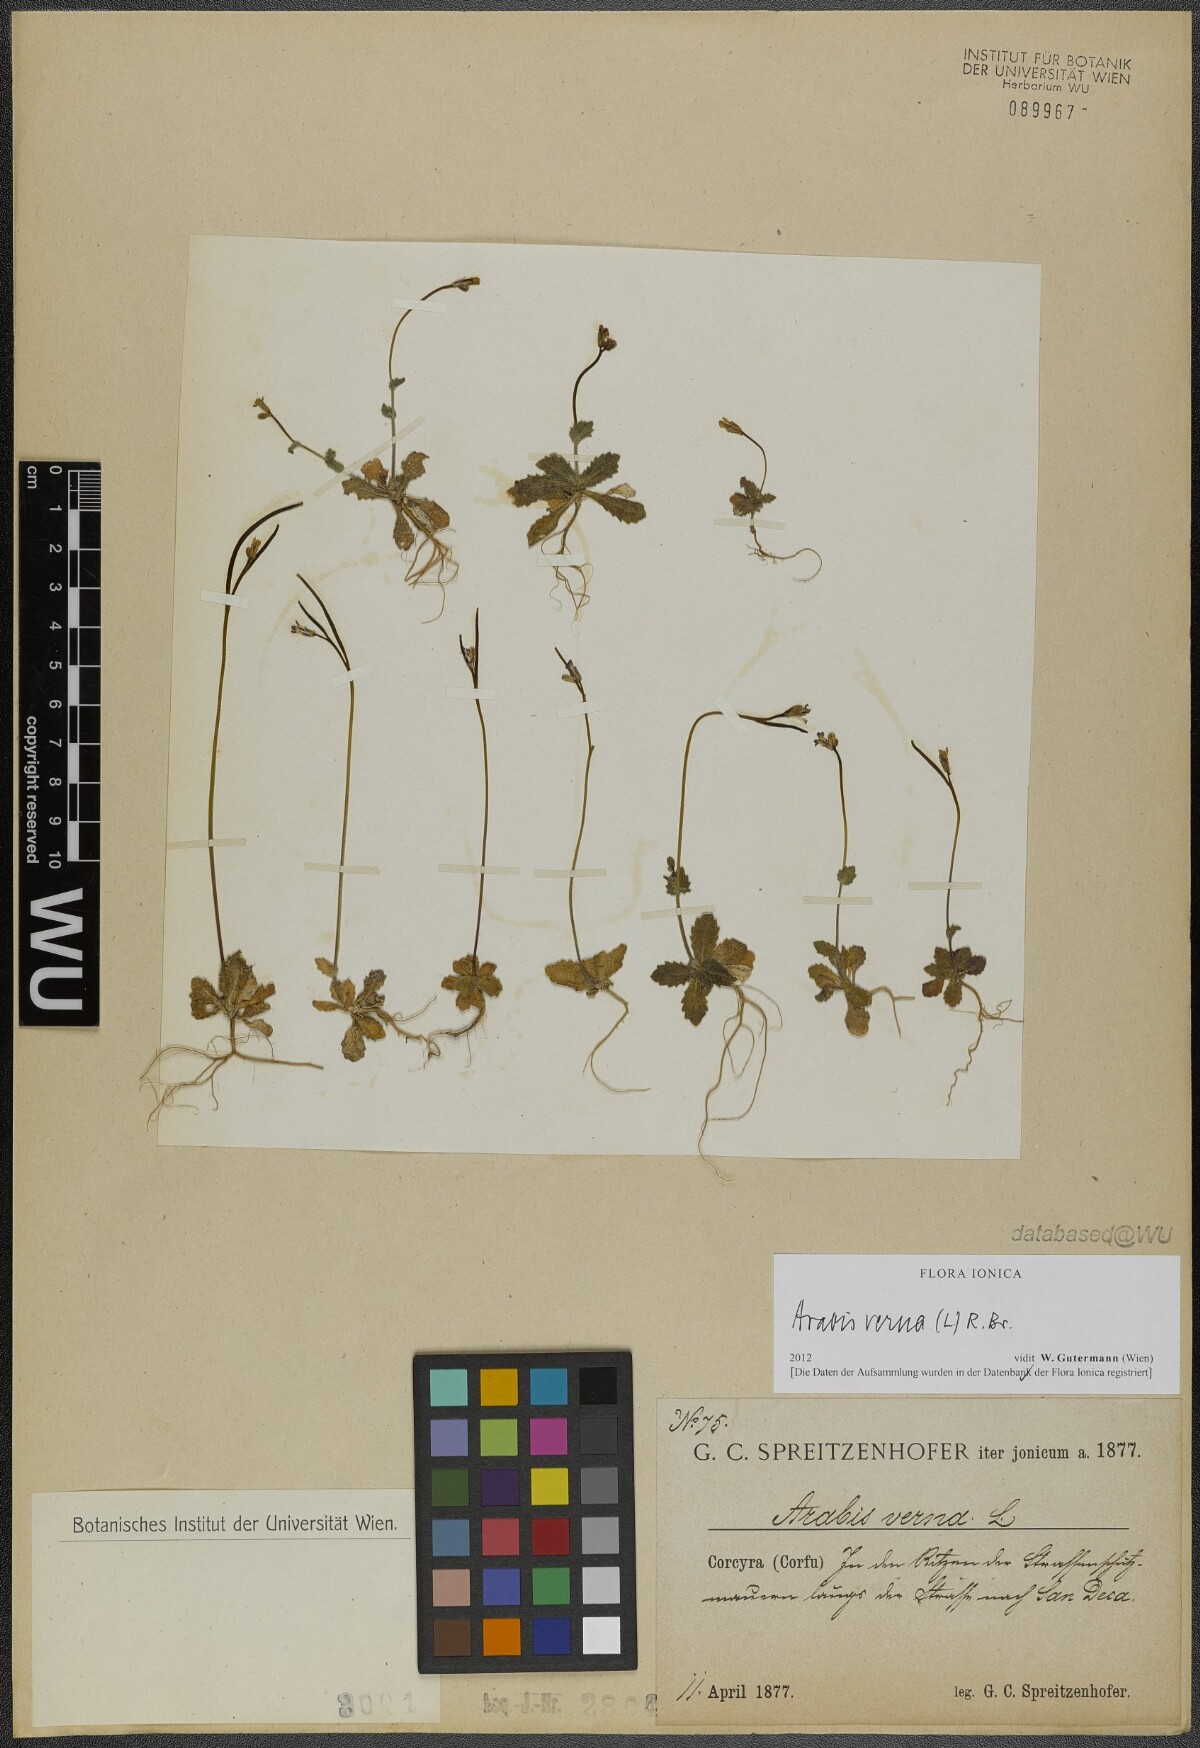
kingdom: Plantae
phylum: Tracheophyta
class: Magnoliopsida
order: Brassicales
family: Brassicaceae
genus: Arabis
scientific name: Arabis verna
